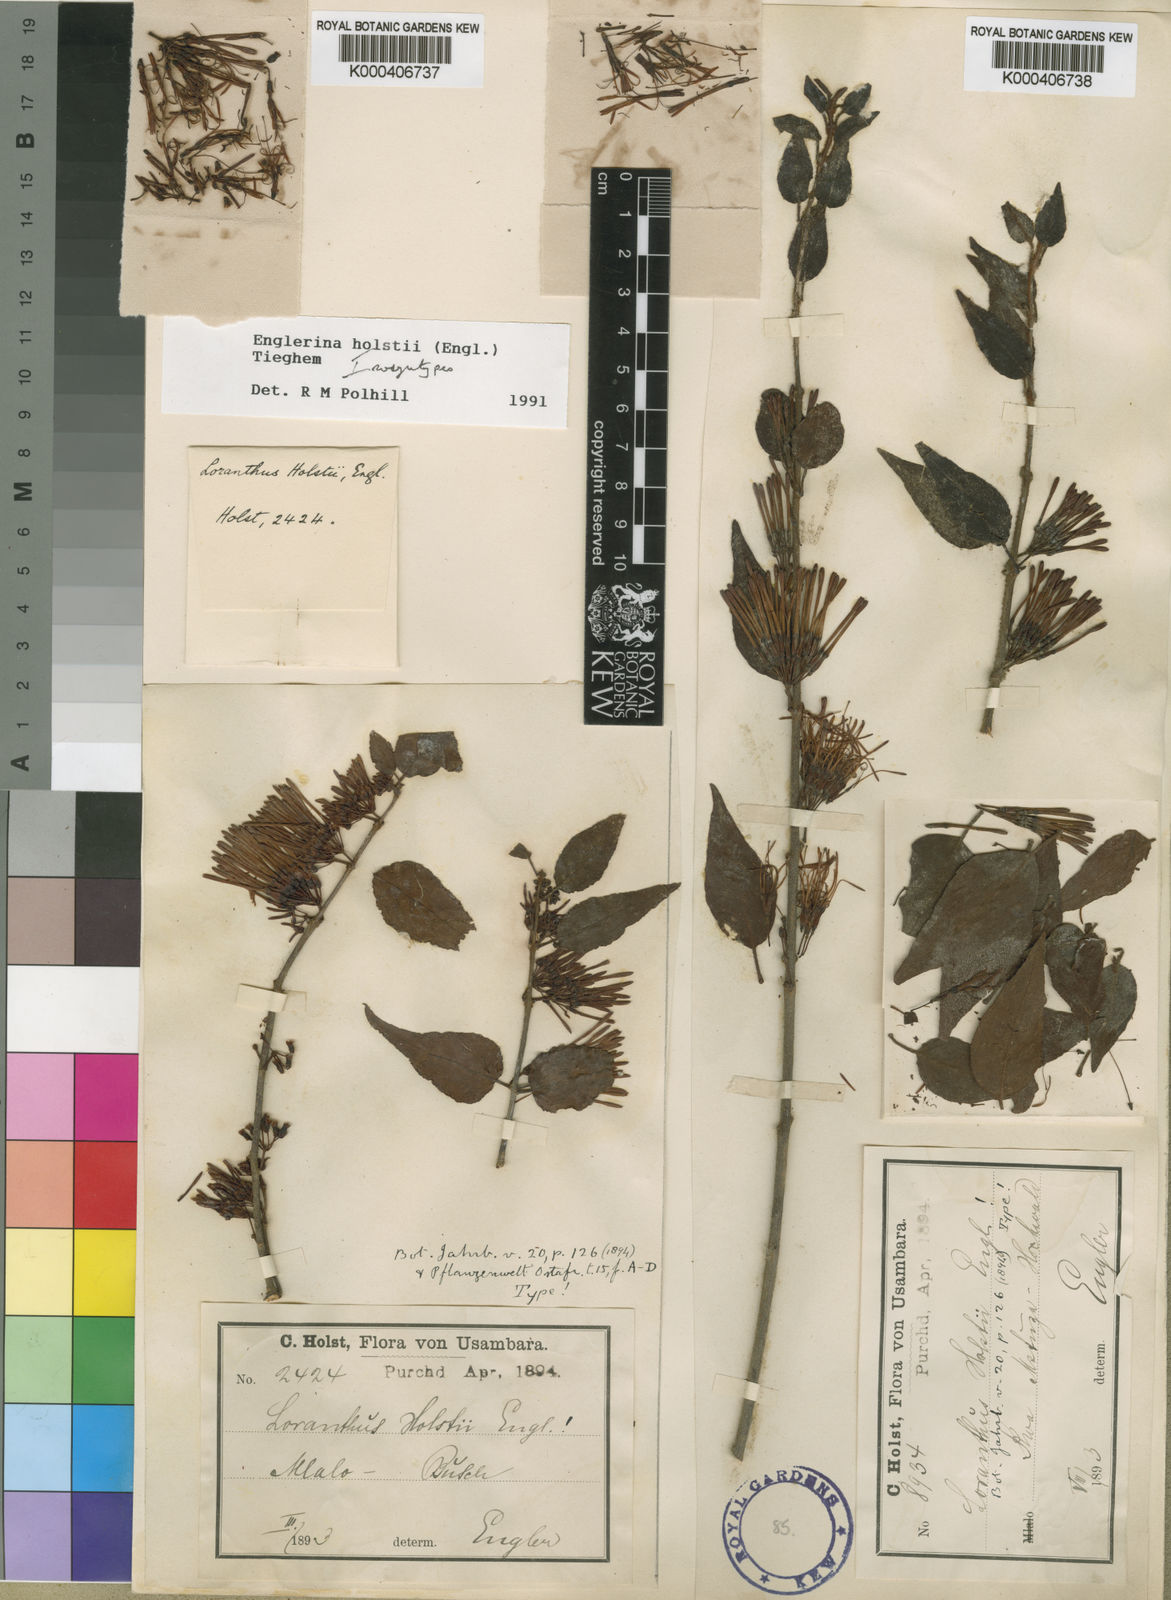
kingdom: Plantae
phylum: Tracheophyta
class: Magnoliopsida
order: Santalales
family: Loranthaceae
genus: Englerina
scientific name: Englerina holstii
